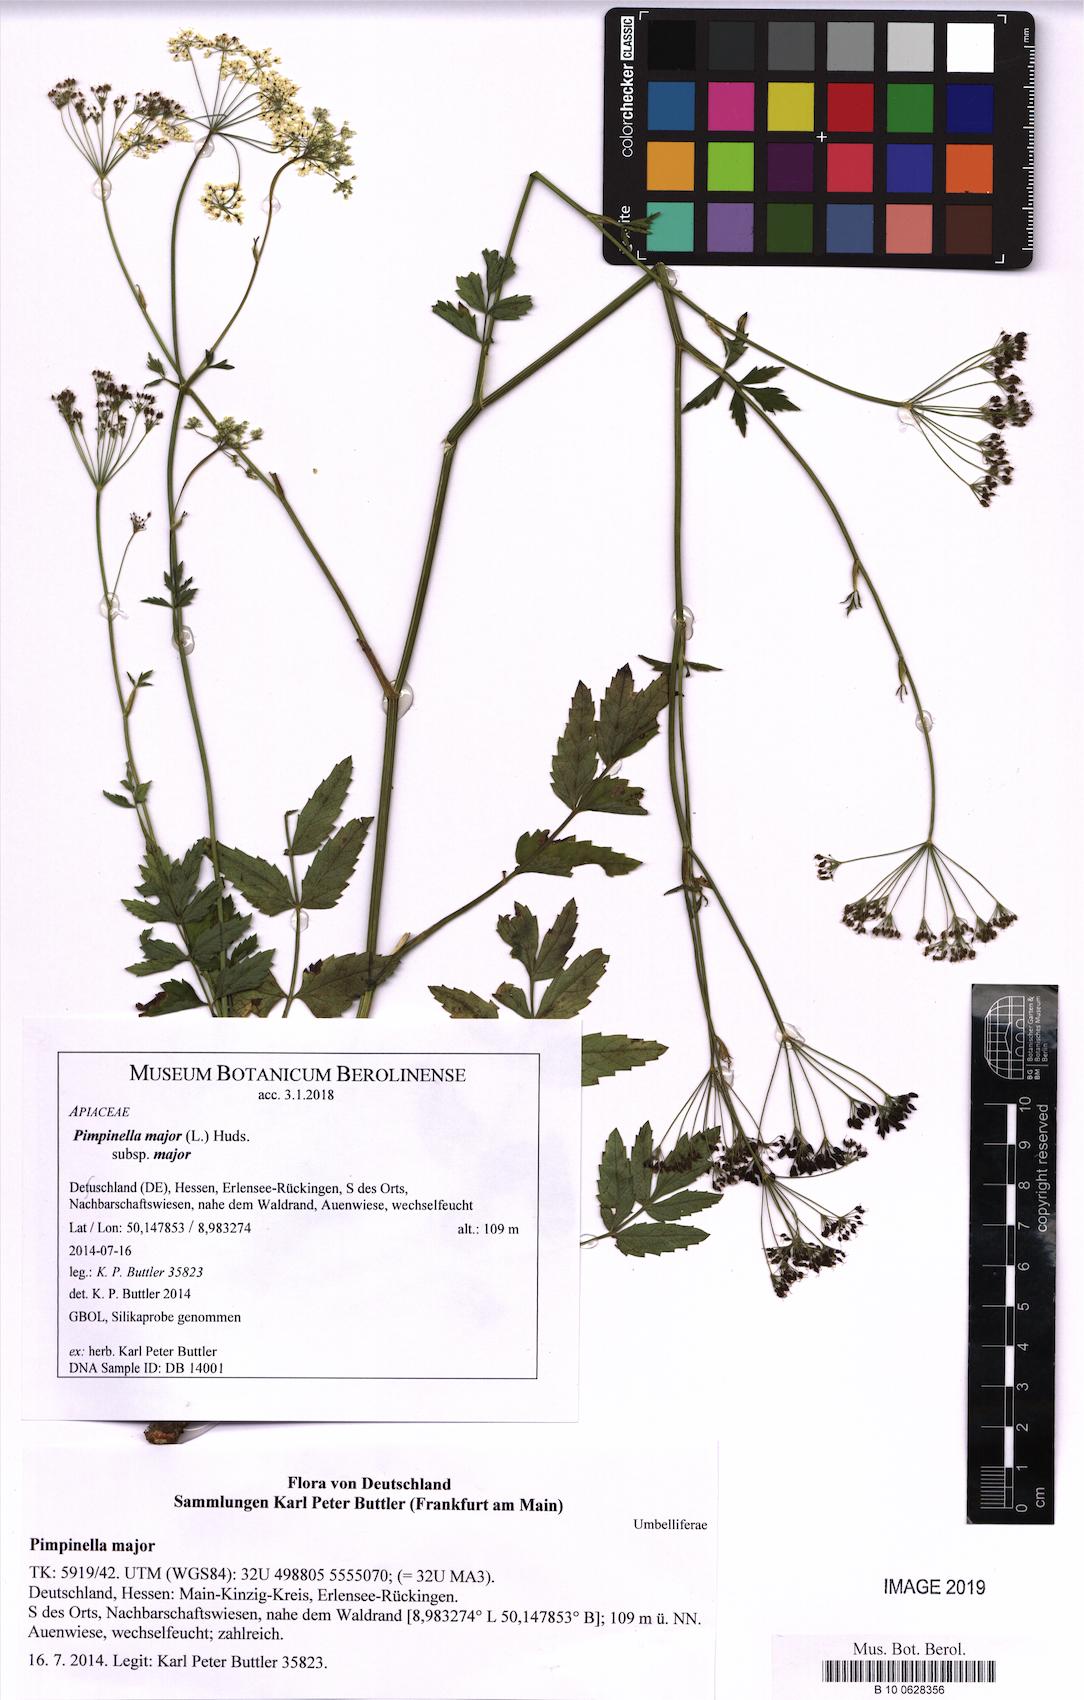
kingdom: Plantae
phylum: Tracheophyta
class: Magnoliopsida
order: Apiales
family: Apiaceae
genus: Pimpinella
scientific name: Pimpinella major
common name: Greater burnet-saxifrage
